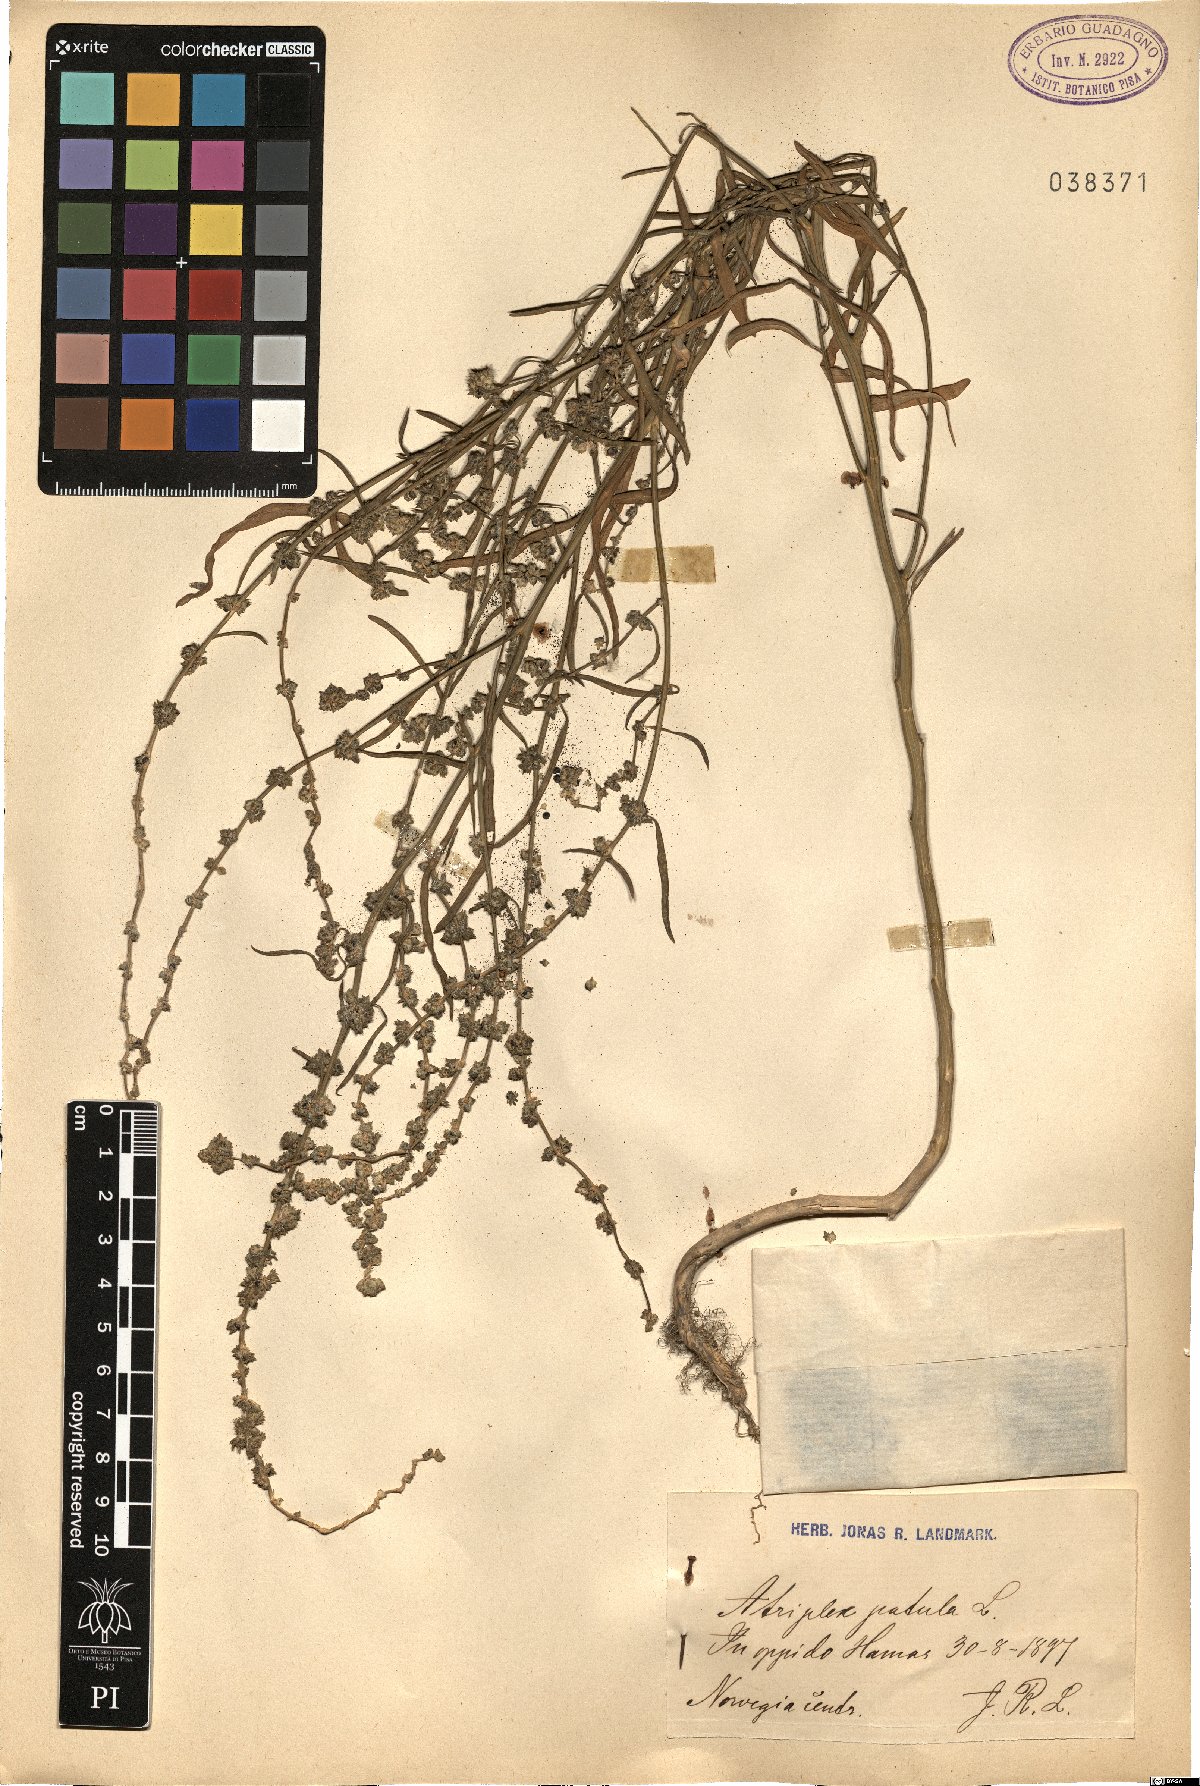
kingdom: Plantae
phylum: Tracheophyta
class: Magnoliopsida
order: Caryophyllales
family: Amaranthaceae
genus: Atriplex
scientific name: Atriplex patula
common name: Common orache
